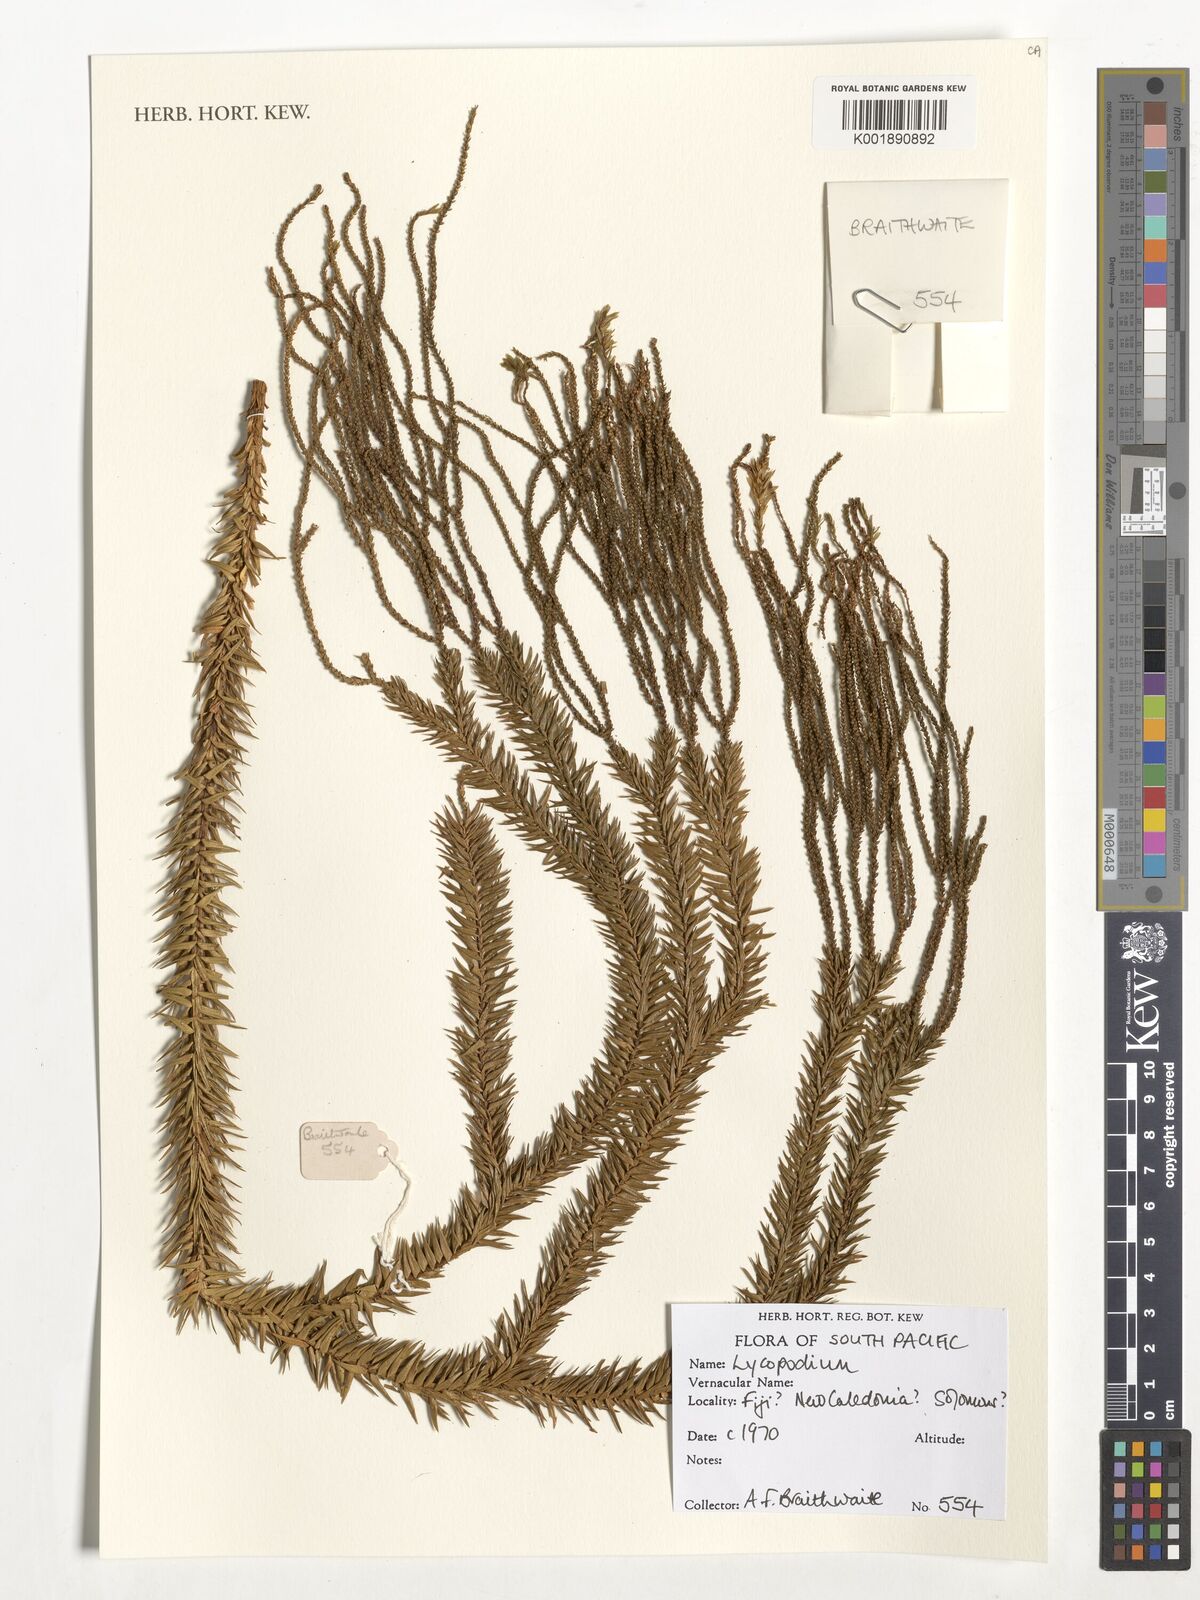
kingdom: Plantae
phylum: Tracheophyta
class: Lycopodiopsida
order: Lycopodiales
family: Lycopodiaceae
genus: Lycopodium
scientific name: Lycopodium
